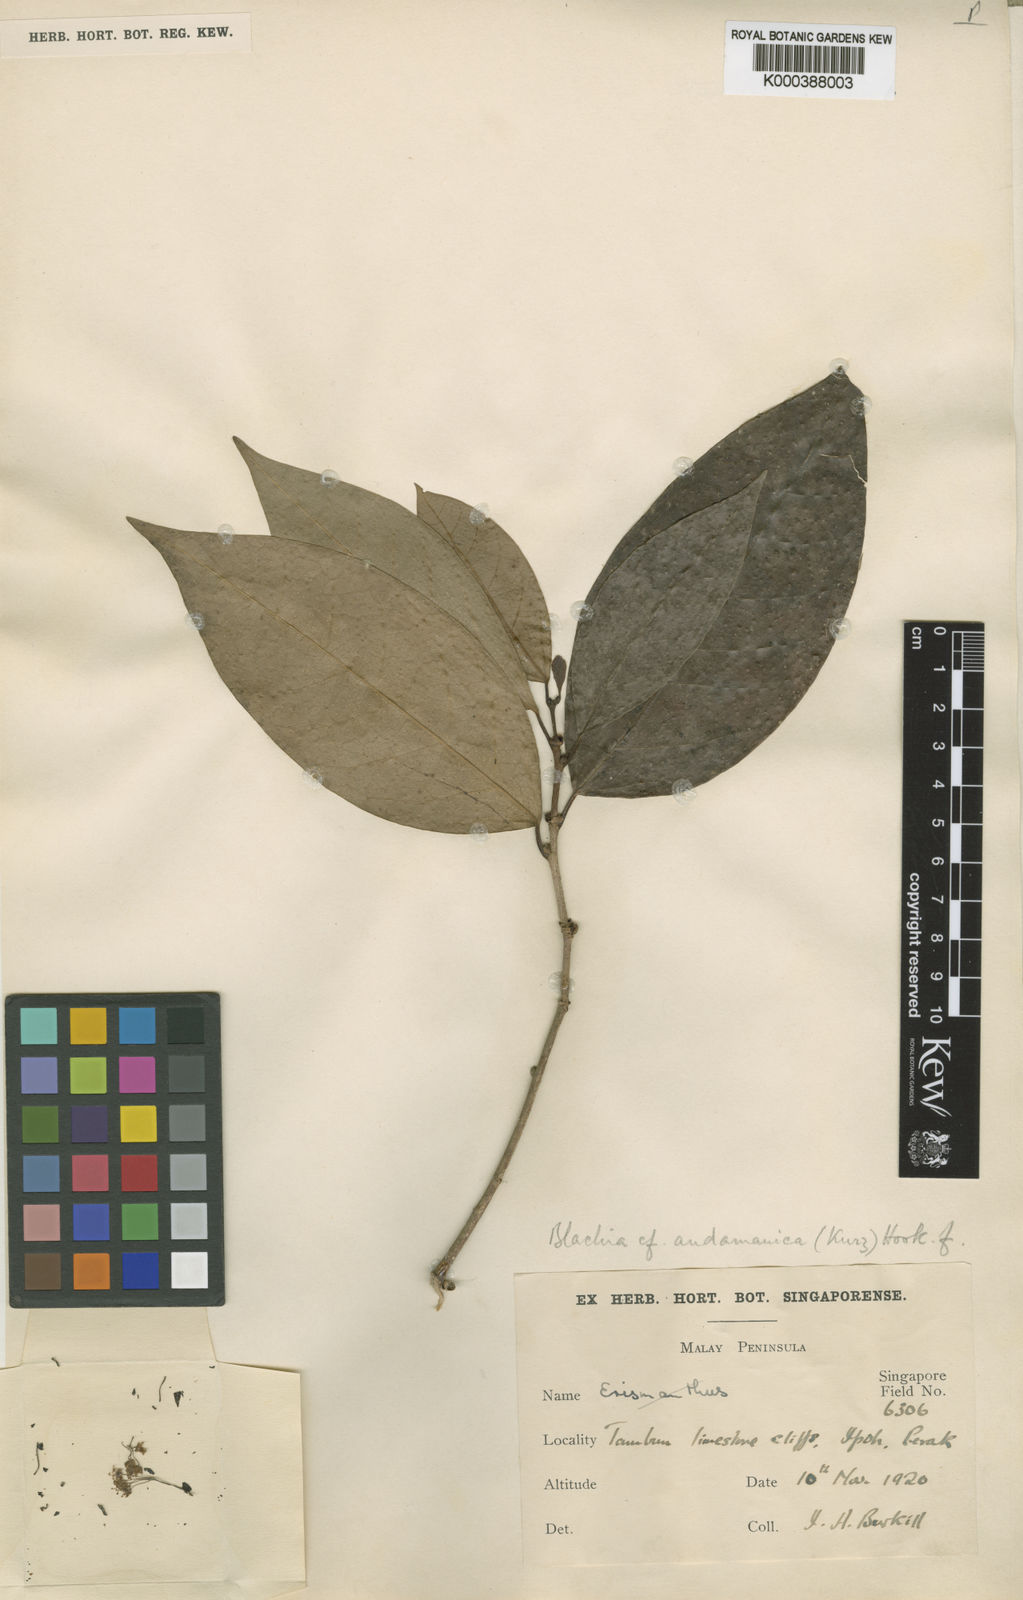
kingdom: Plantae
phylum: Tracheophyta
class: Magnoliopsida
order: Malpighiales
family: Euphorbiaceae
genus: Blachia
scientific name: Blachia andamanica
